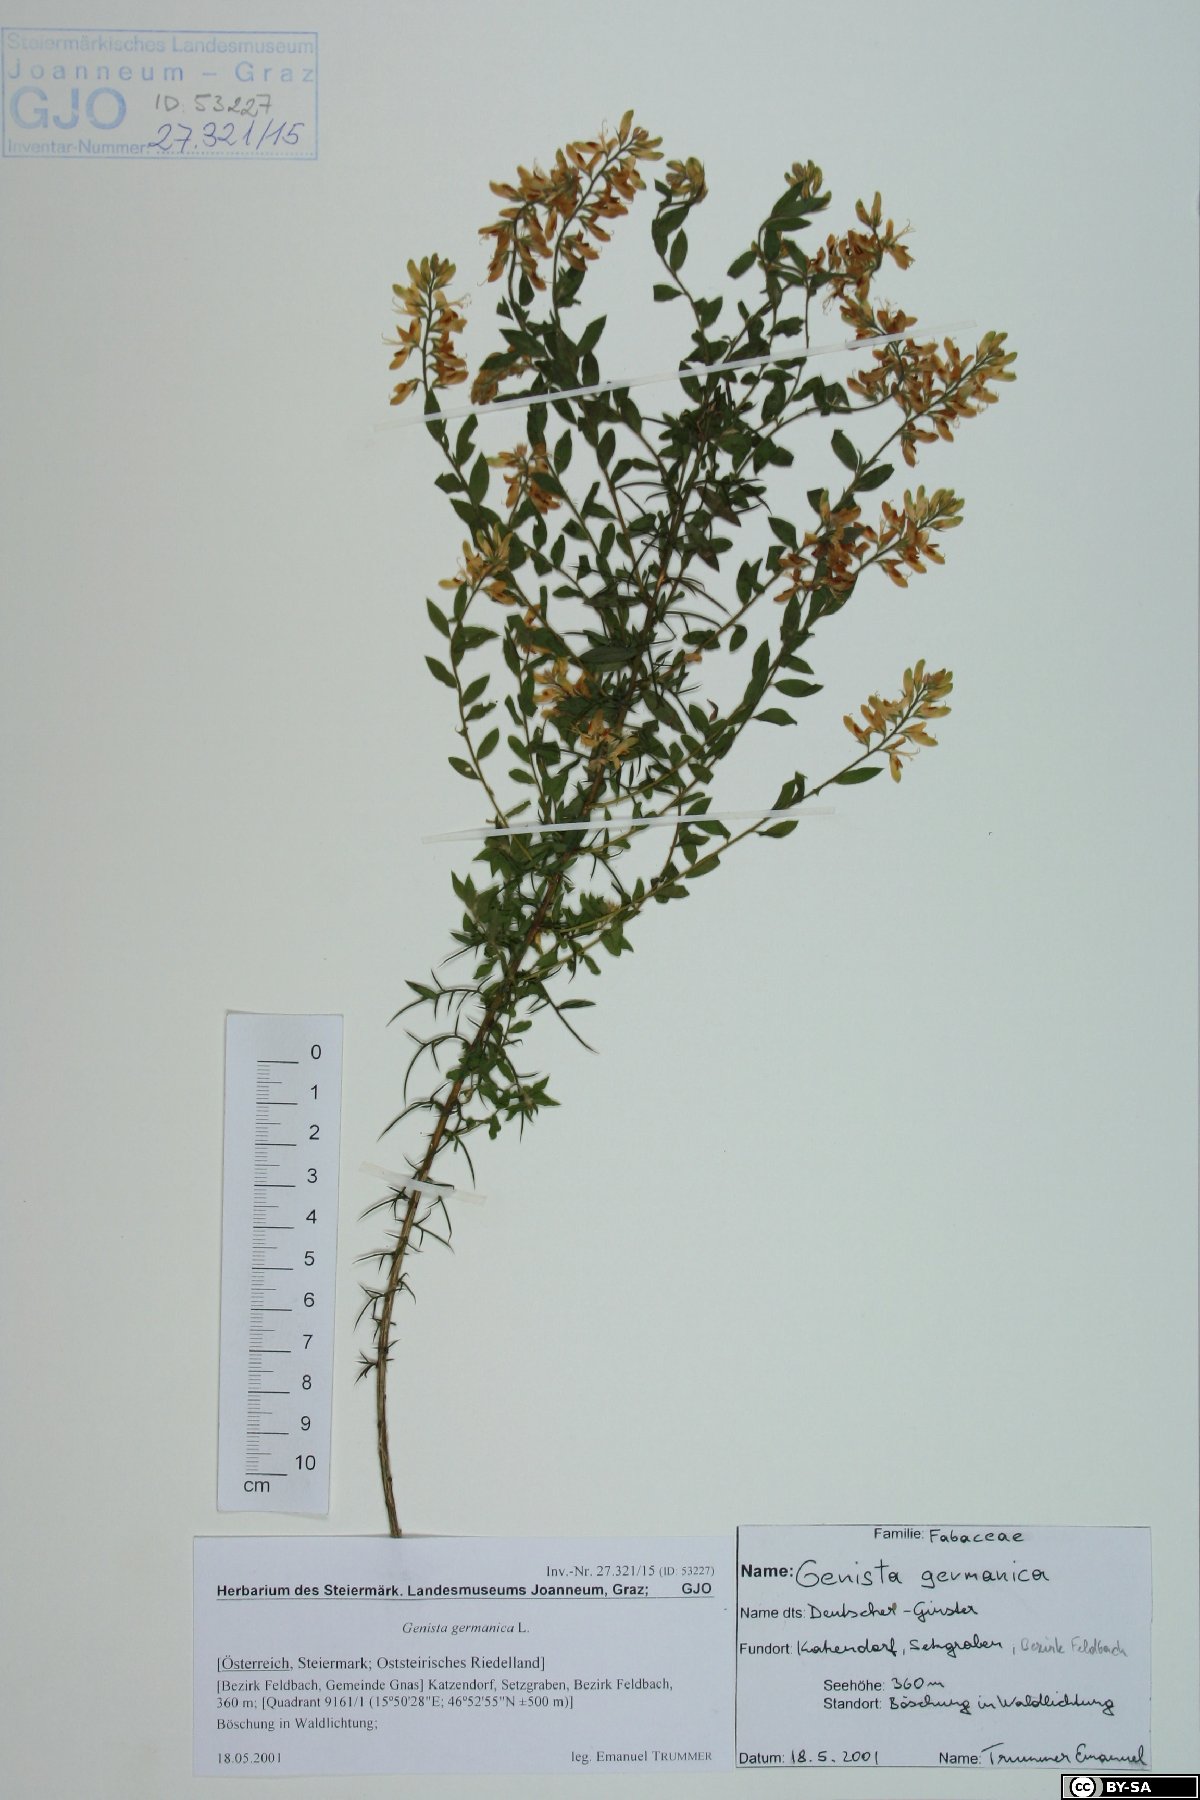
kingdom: Plantae
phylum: Tracheophyta
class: Magnoliopsida
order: Fabales
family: Fabaceae
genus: Genista
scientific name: Genista germanica
